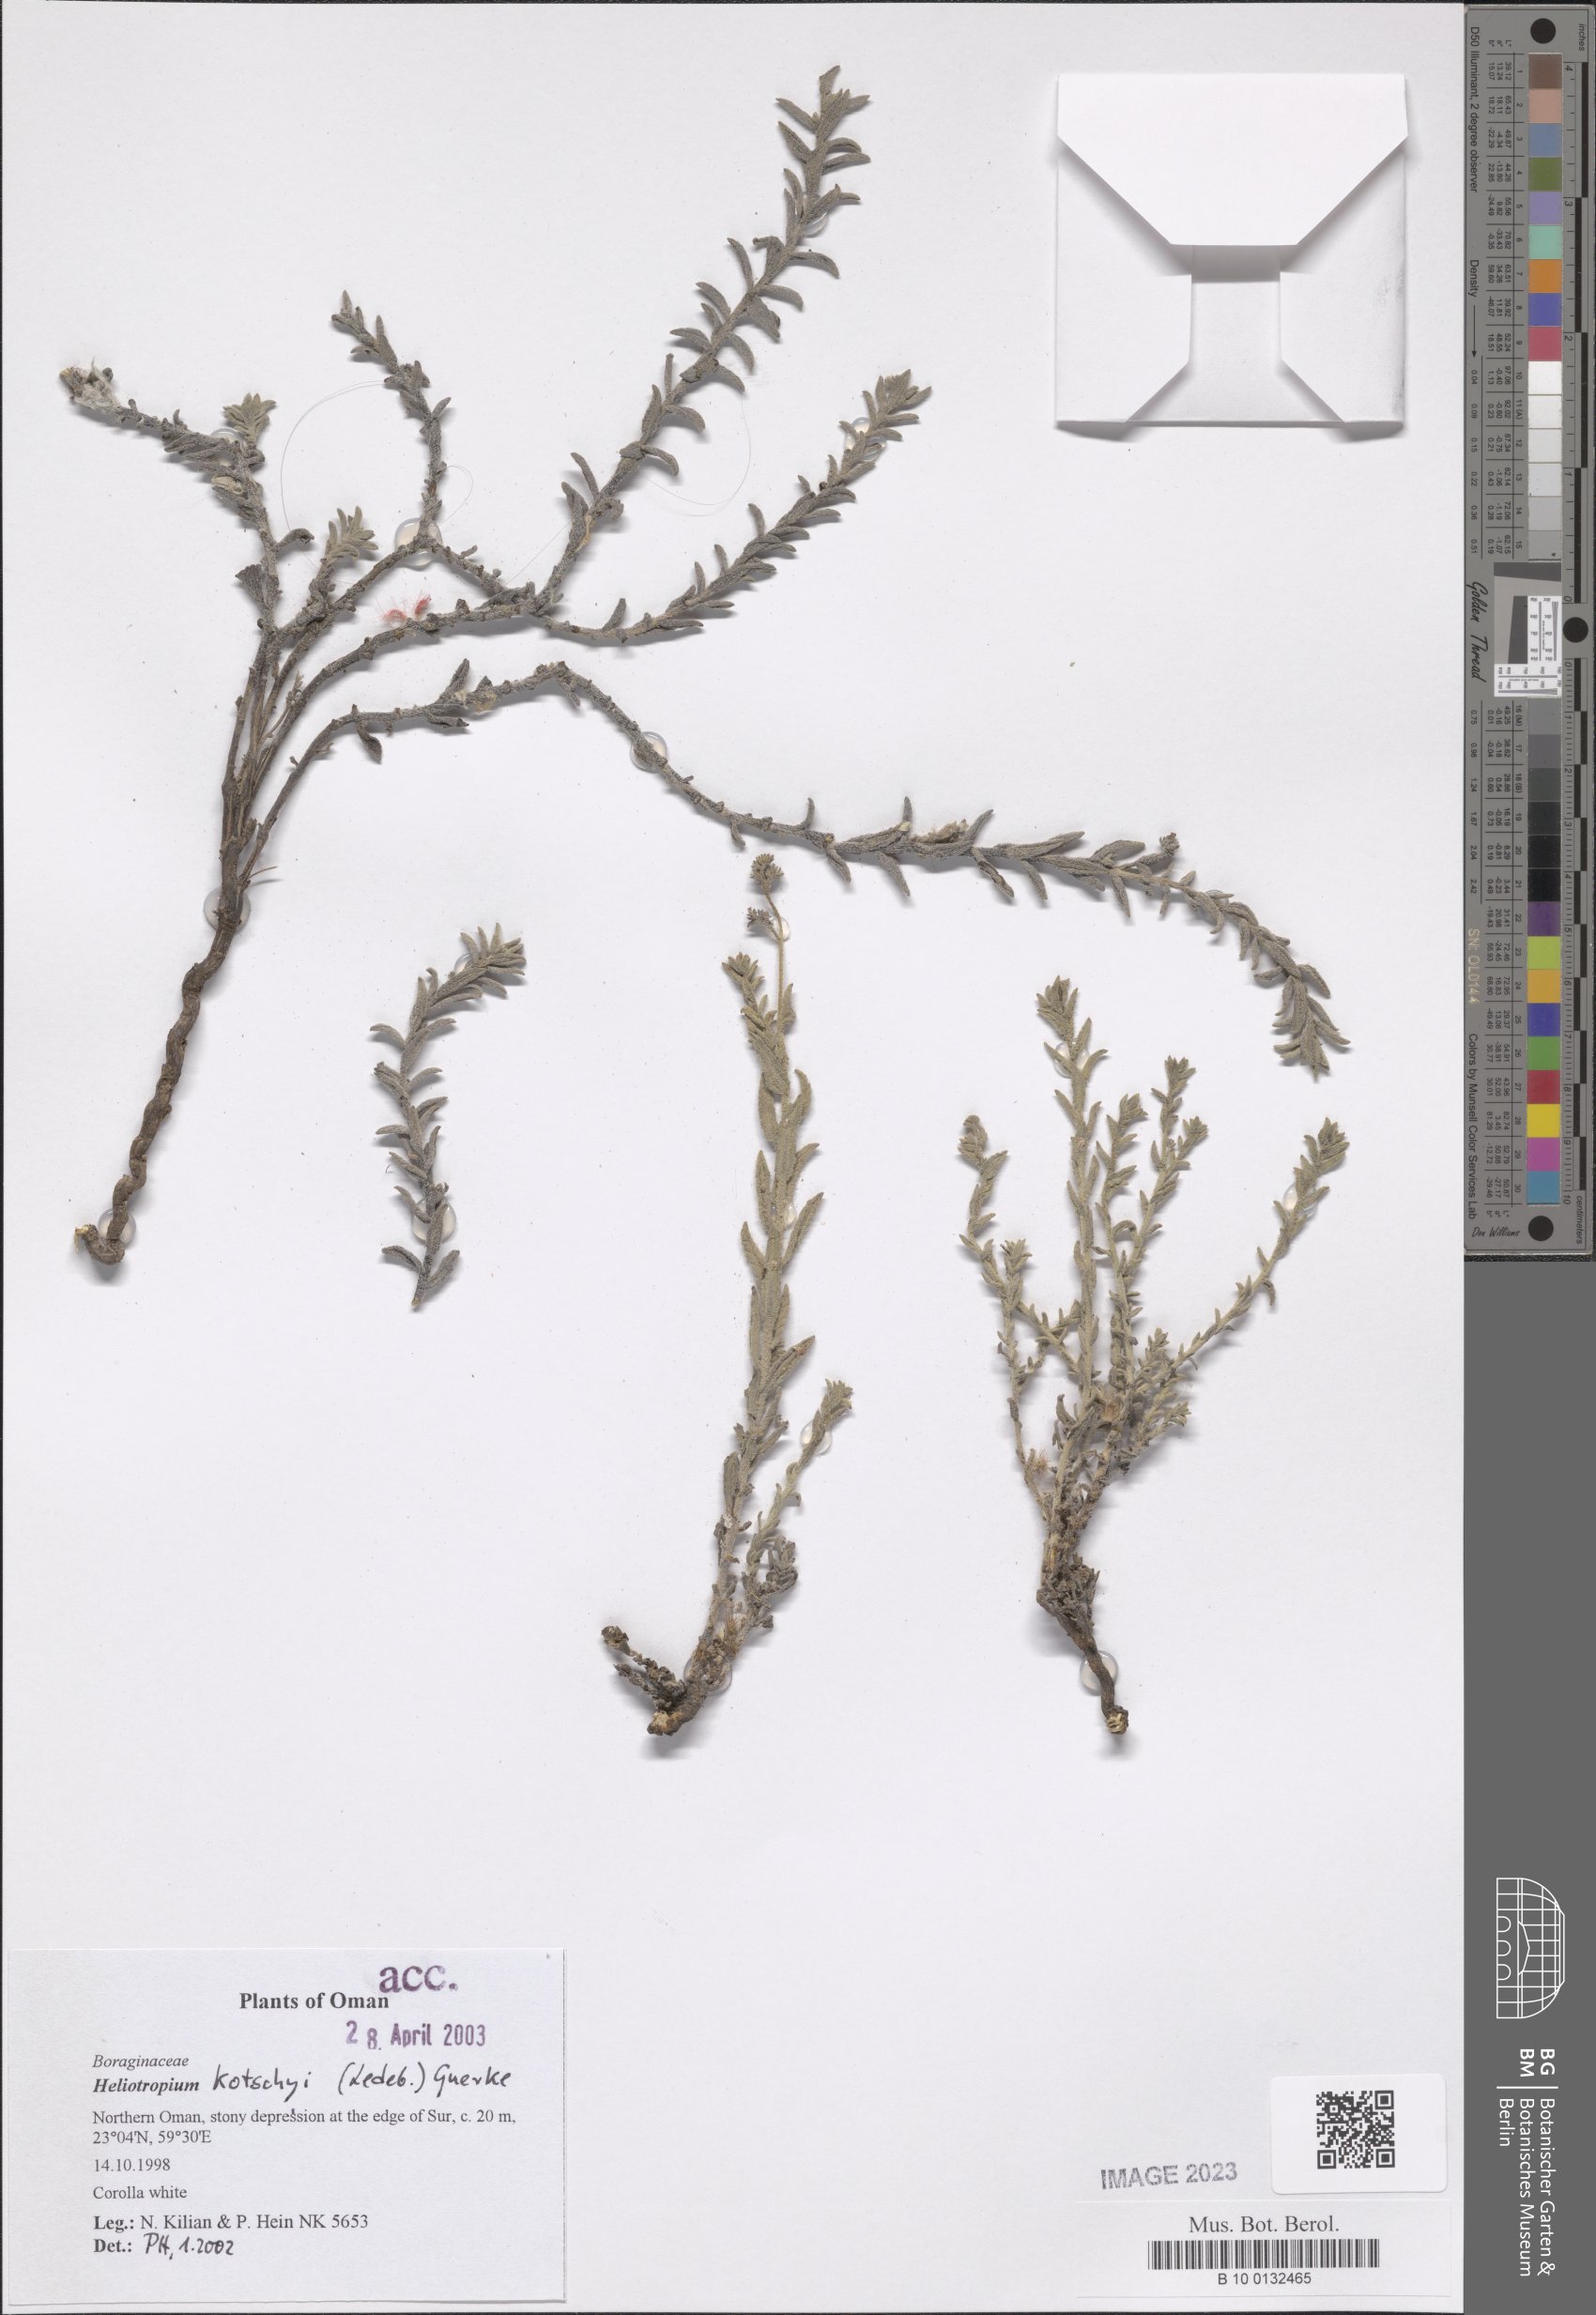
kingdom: Plantae
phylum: Tracheophyta
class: Magnoliopsida
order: Boraginales
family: Heliotropiaceae
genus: Heliotropium
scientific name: Heliotropium ramosissimum
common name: Wavy heliotrope
